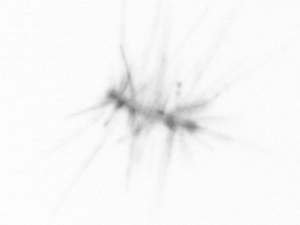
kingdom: Chromista
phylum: Ochrophyta
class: Bacillariophyceae
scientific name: Bacillariophyceae
